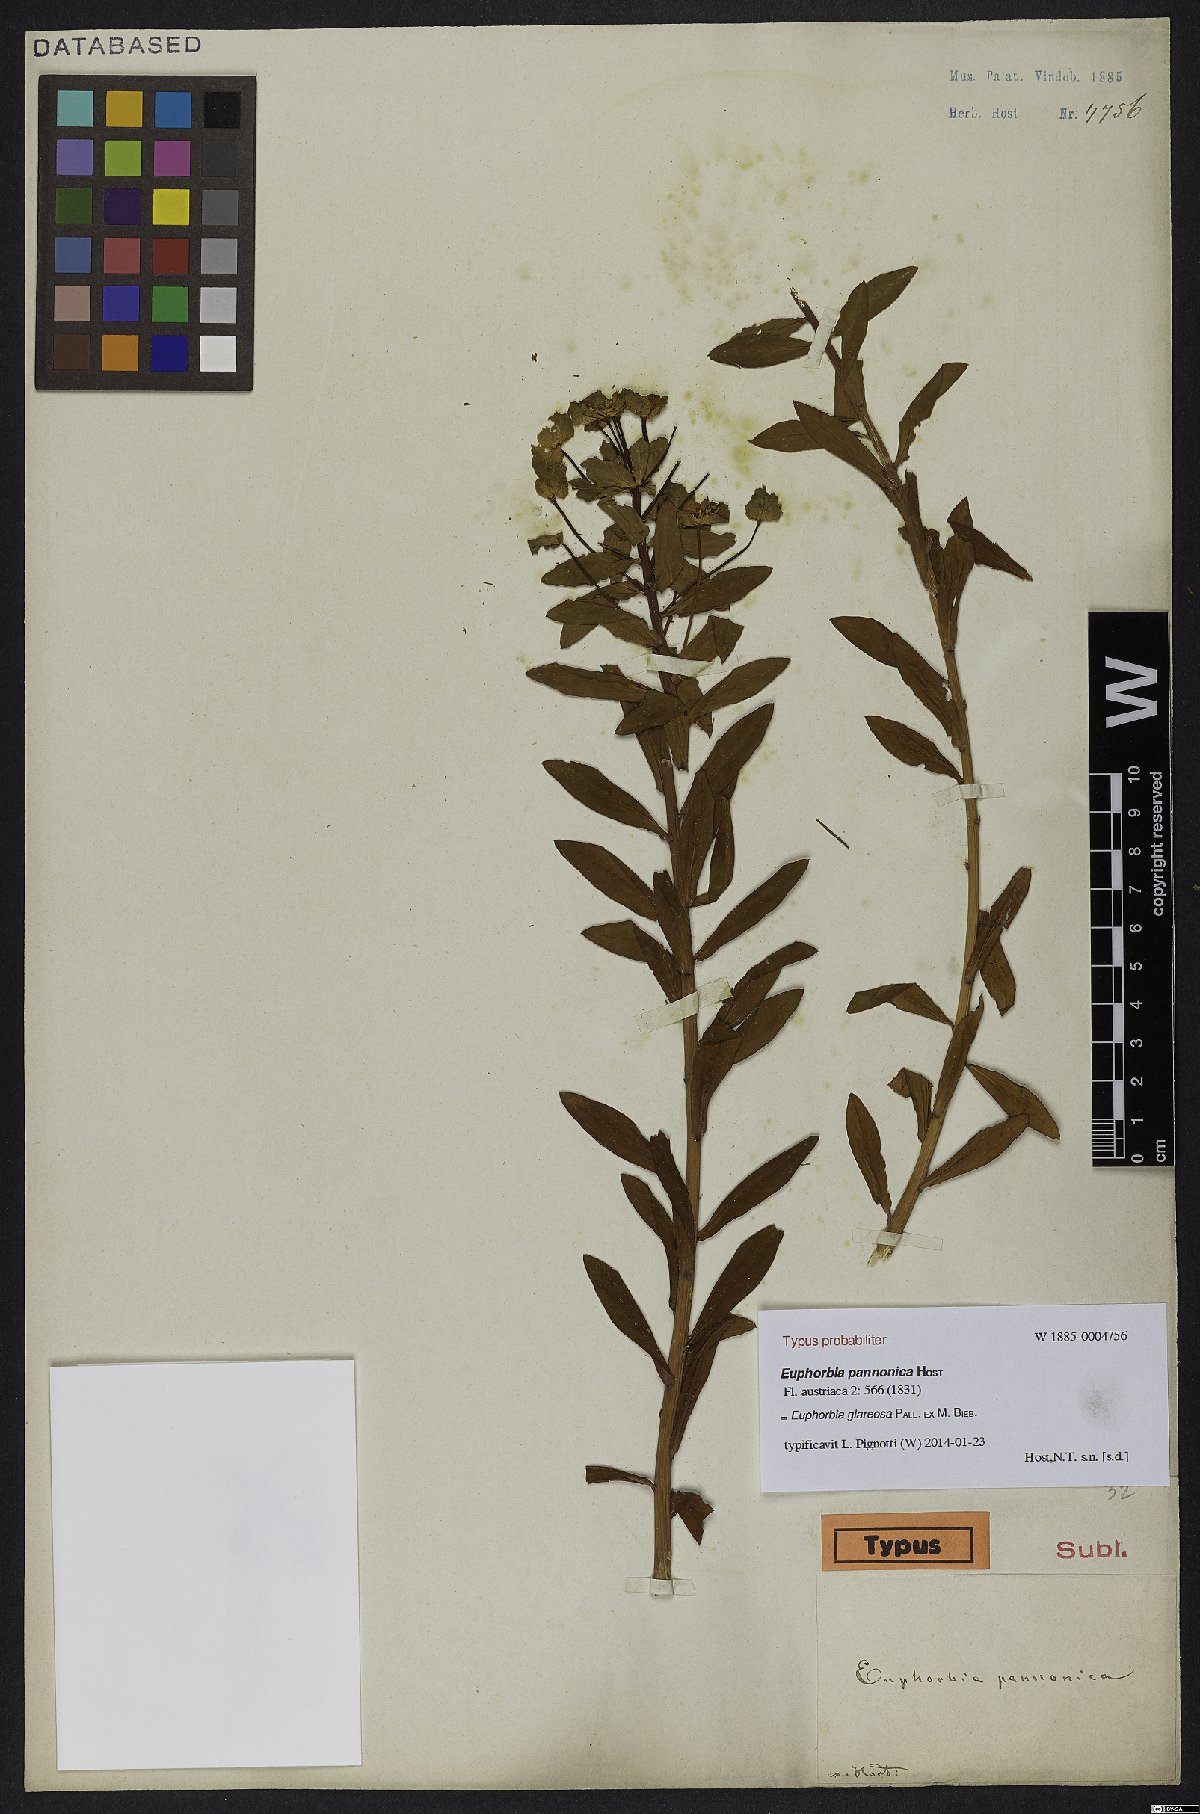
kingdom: Plantae
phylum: Tracheophyta
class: Magnoliopsida
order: Malpighiales
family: Euphorbiaceae
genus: Euphorbia
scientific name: Euphorbia glareosa
